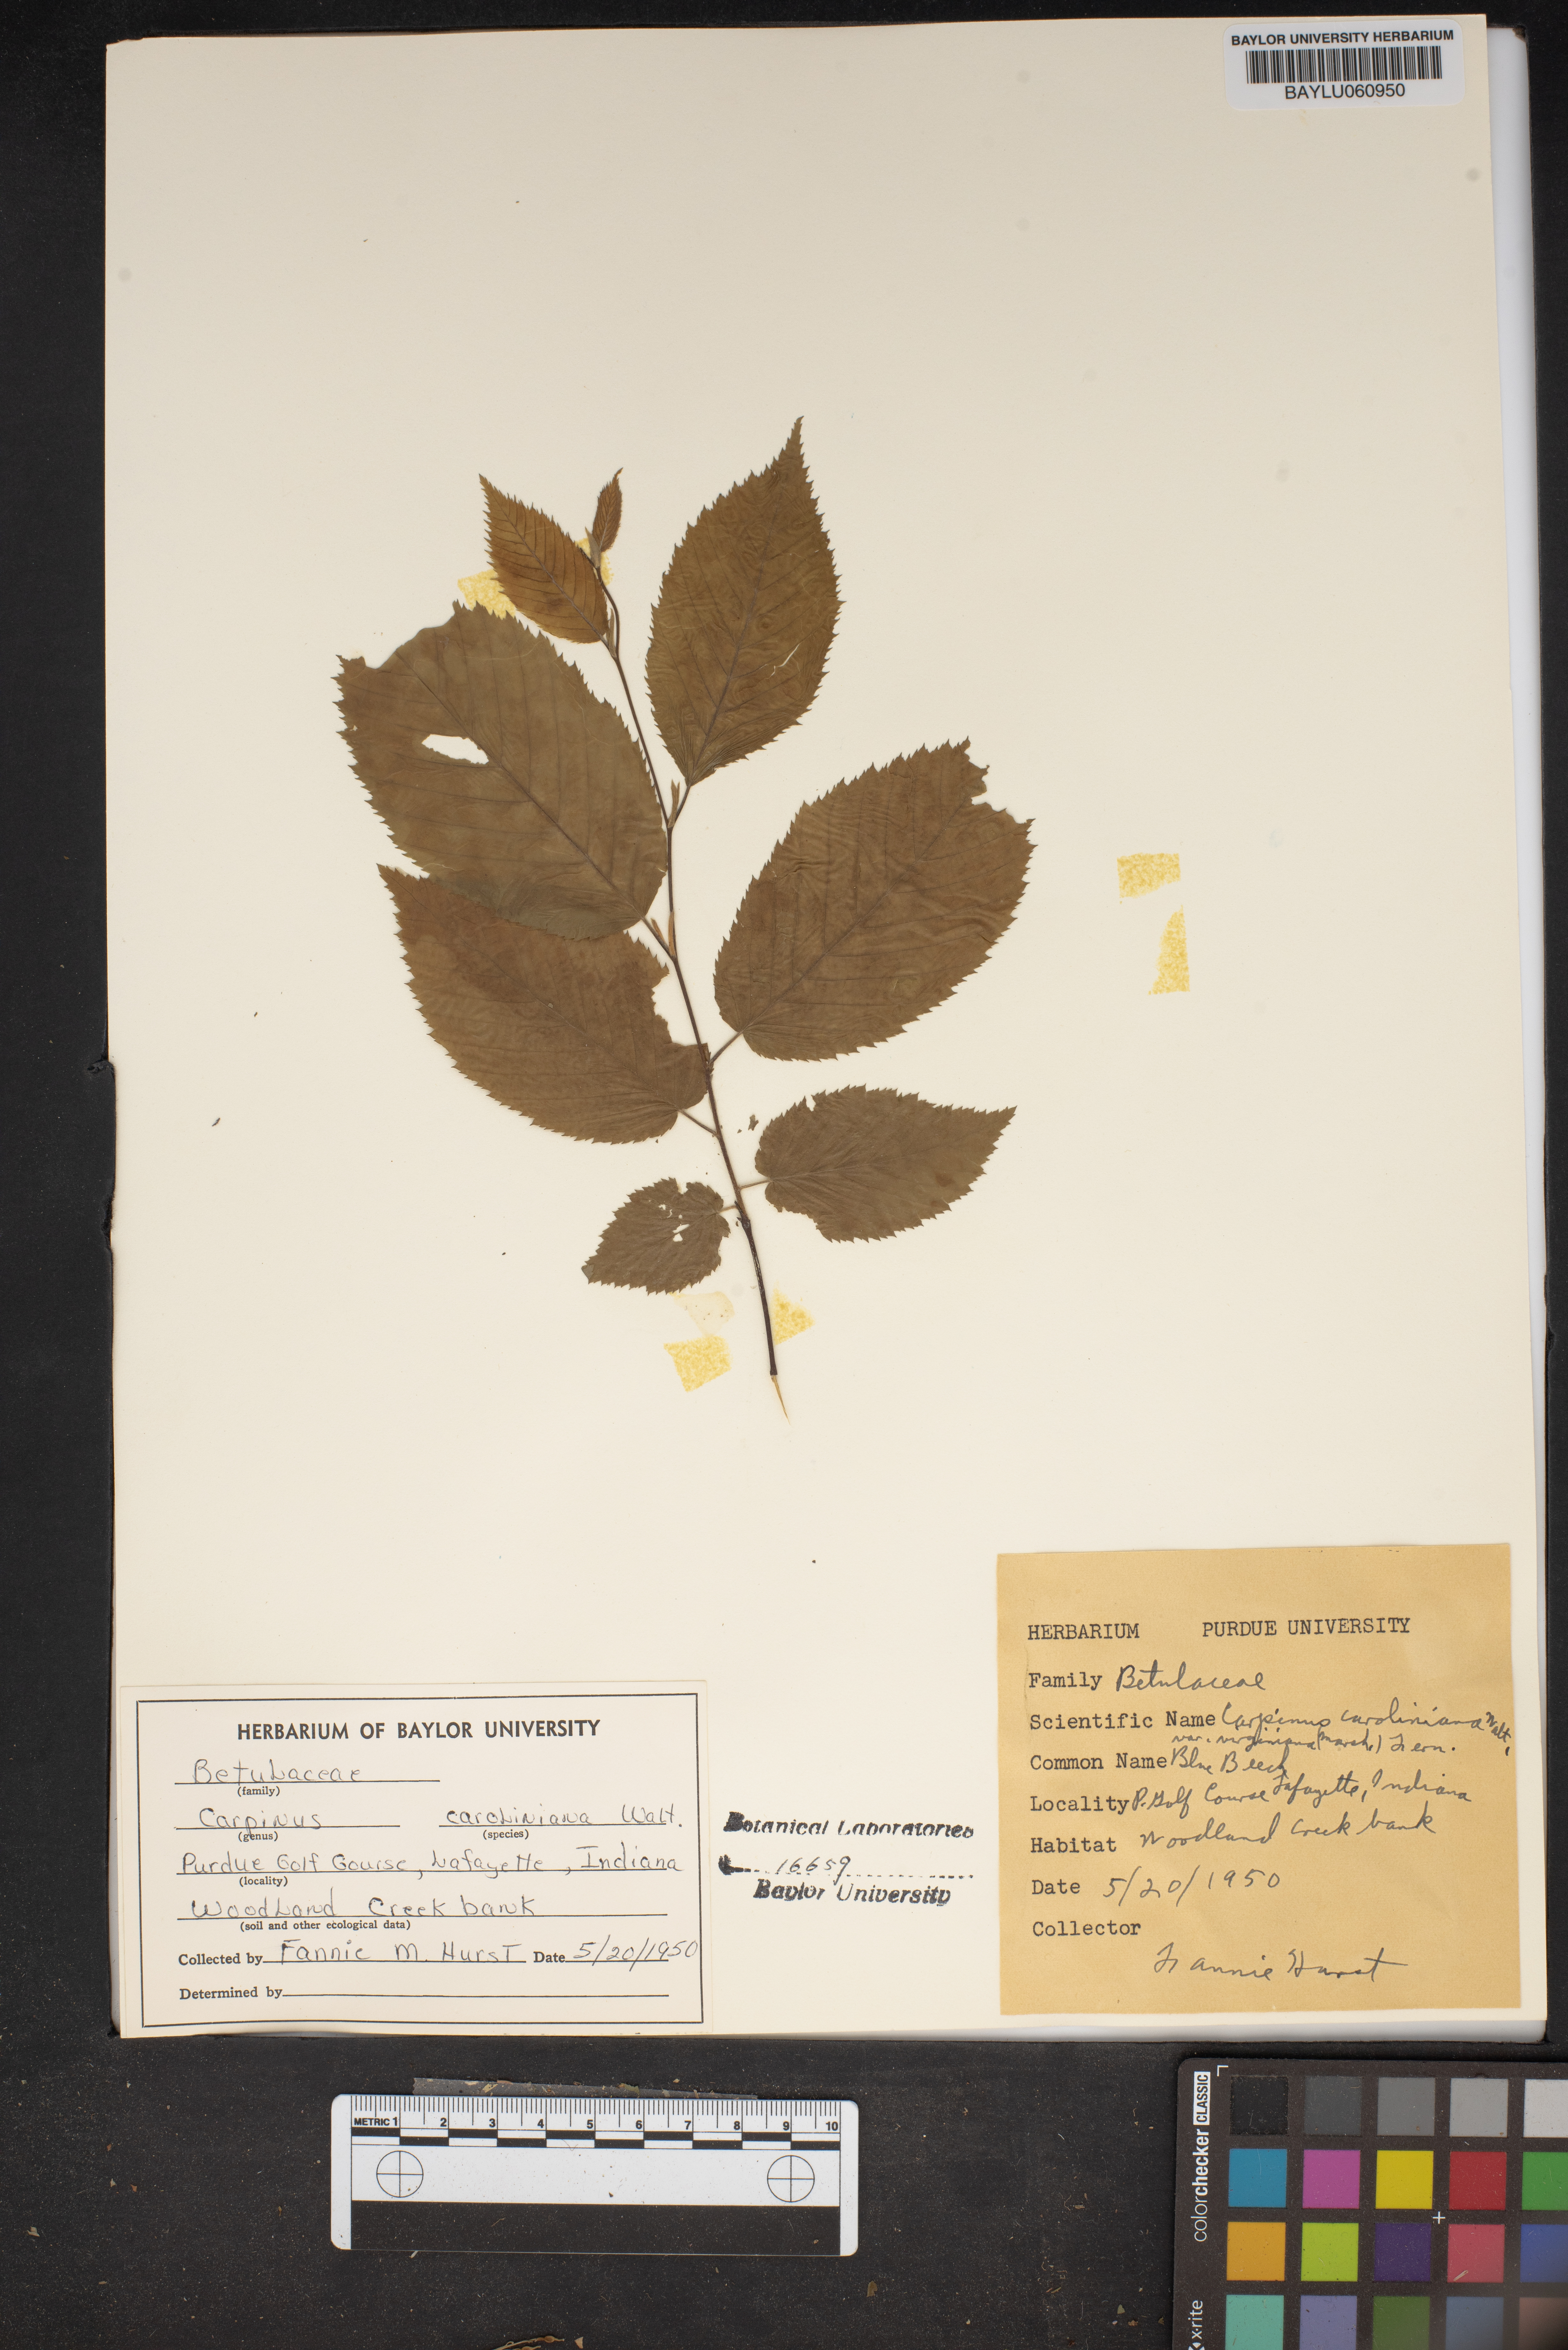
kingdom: Plantae
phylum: Tracheophyta
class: Magnoliopsida
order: Fagales
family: Betulaceae
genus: Carpinus
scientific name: Carpinus caroliniana
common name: American hornbeam
